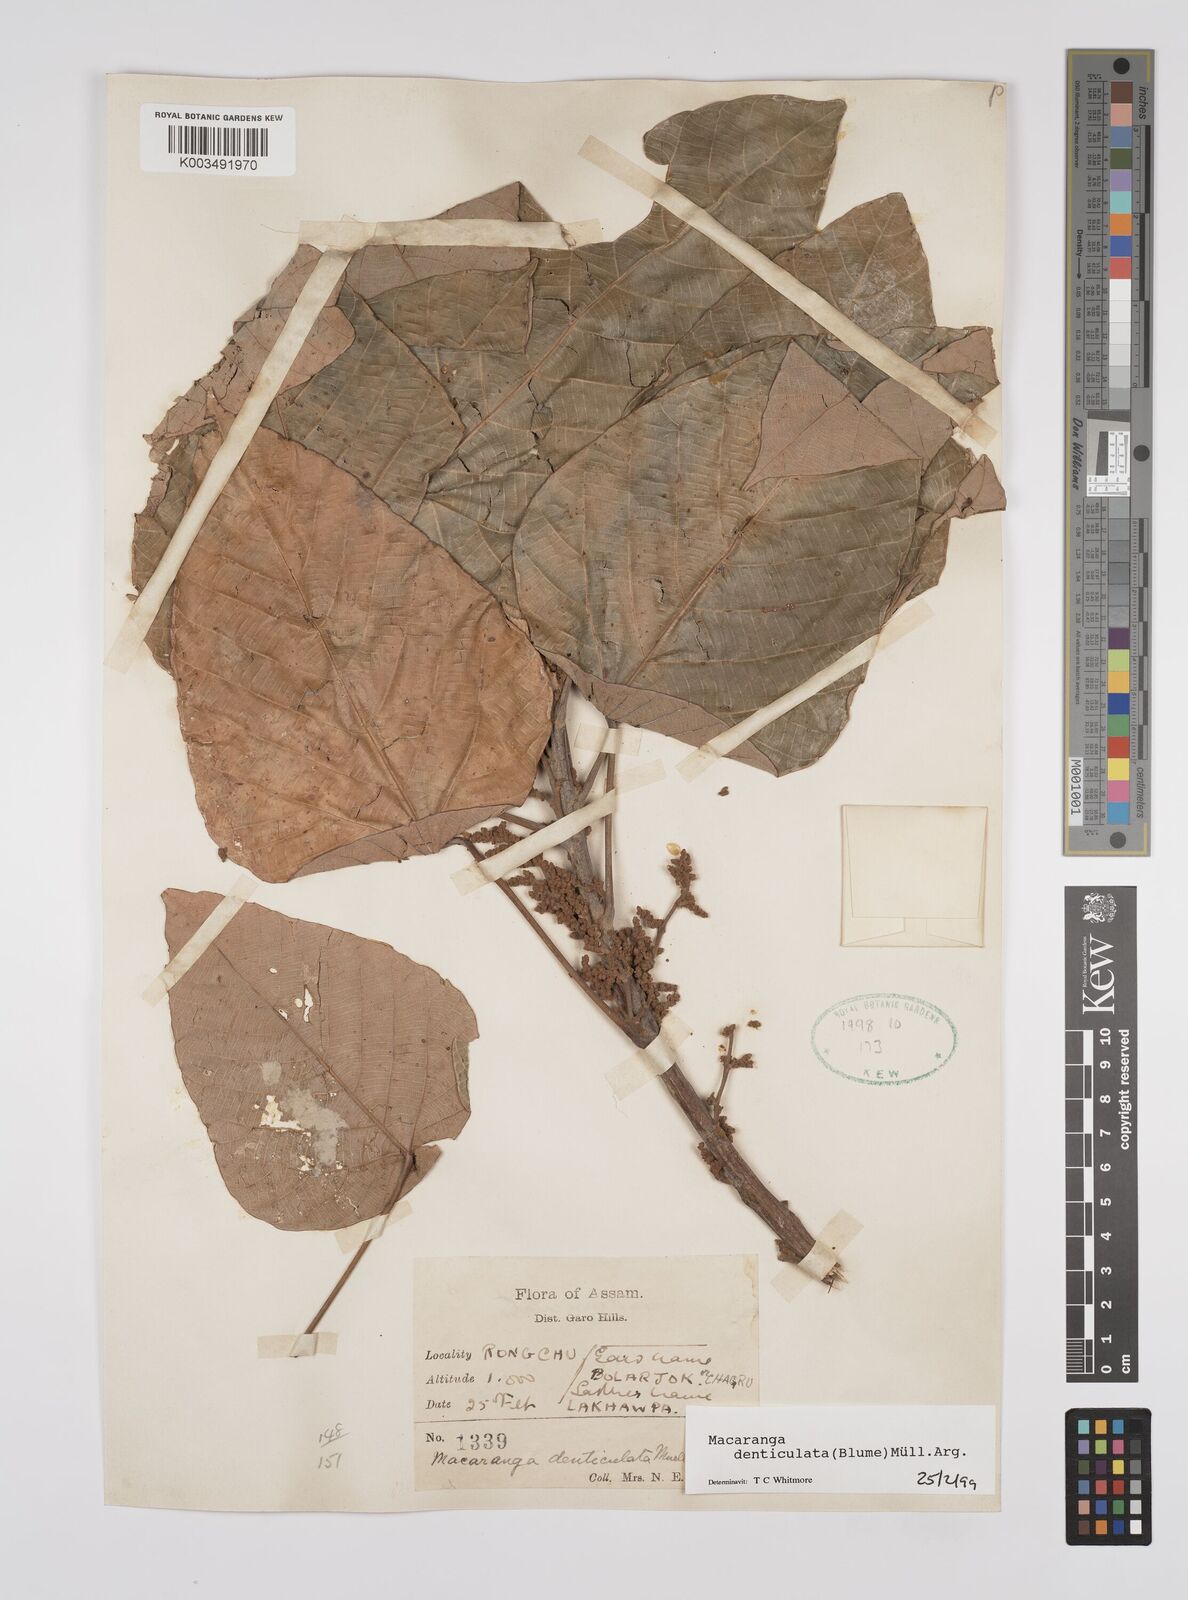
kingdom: Plantae
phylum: Tracheophyta
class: Magnoliopsida
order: Malpighiales
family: Euphorbiaceae
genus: Macaranga
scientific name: Macaranga denticulata
